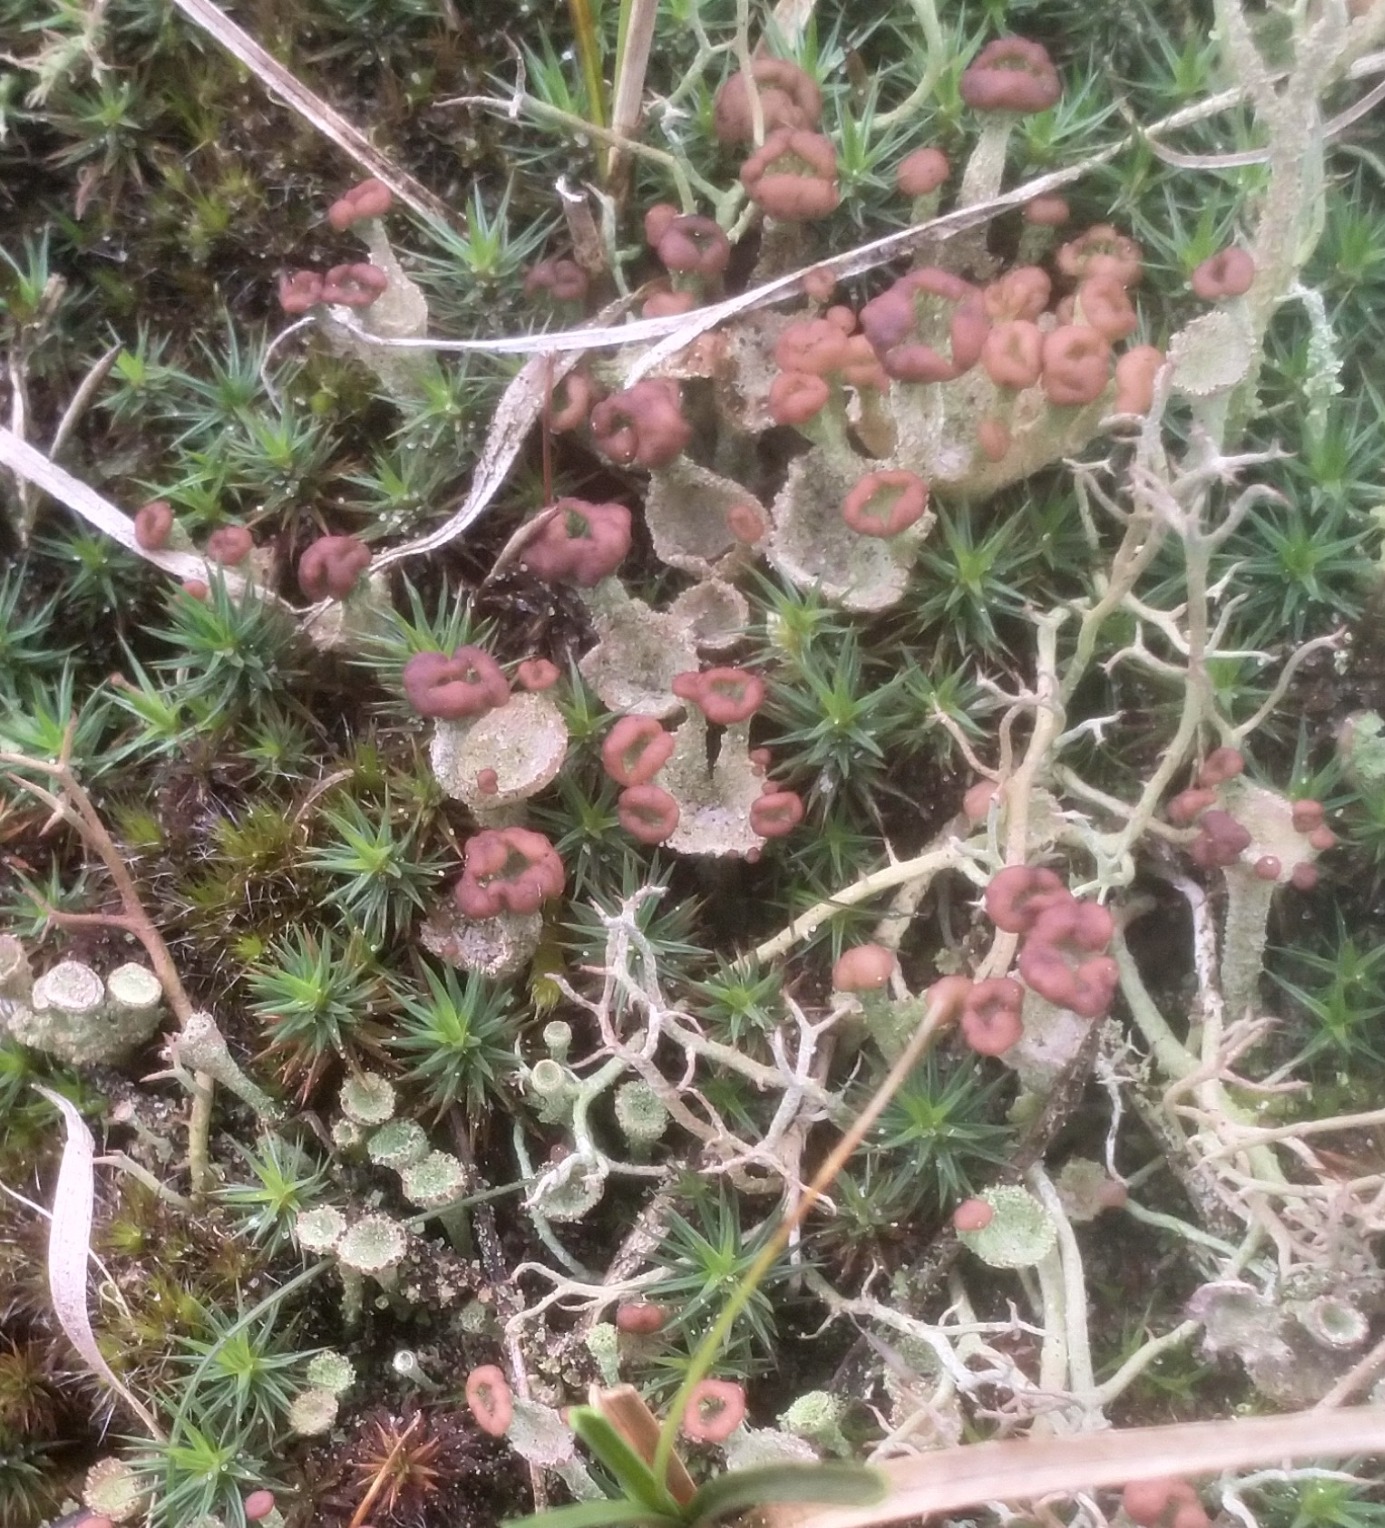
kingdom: Fungi
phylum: Ascomycota
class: Lecanoromycetes
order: Lecanorales
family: Cladoniaceae
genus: Cladonia
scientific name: Cladonia ramulosa
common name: Kliddet bægerlav
